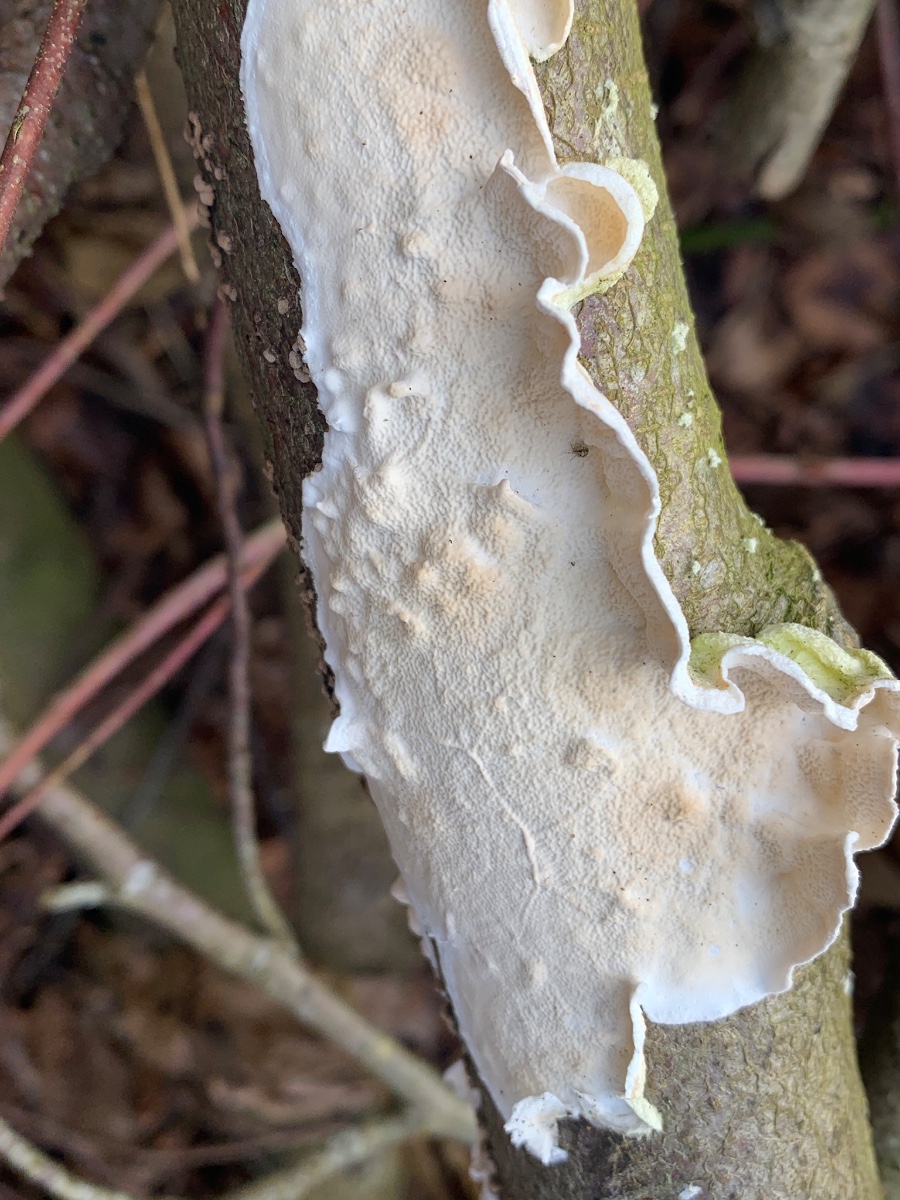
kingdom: Fungi
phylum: Basidiomycota
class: Agaricomycetes
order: Polyporales
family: Irpicaceae
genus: Byssomerulius
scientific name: Byssomerulius corium
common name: læder-åresvamp
